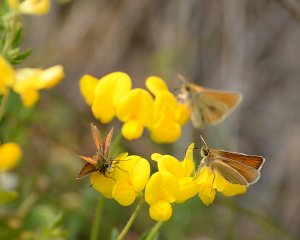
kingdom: Animalia
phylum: Arthropoda
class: Insecta
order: Lepidoptera
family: Hesperiidae
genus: Thymelicus
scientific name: Thymelicus lineola
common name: European Skipper
